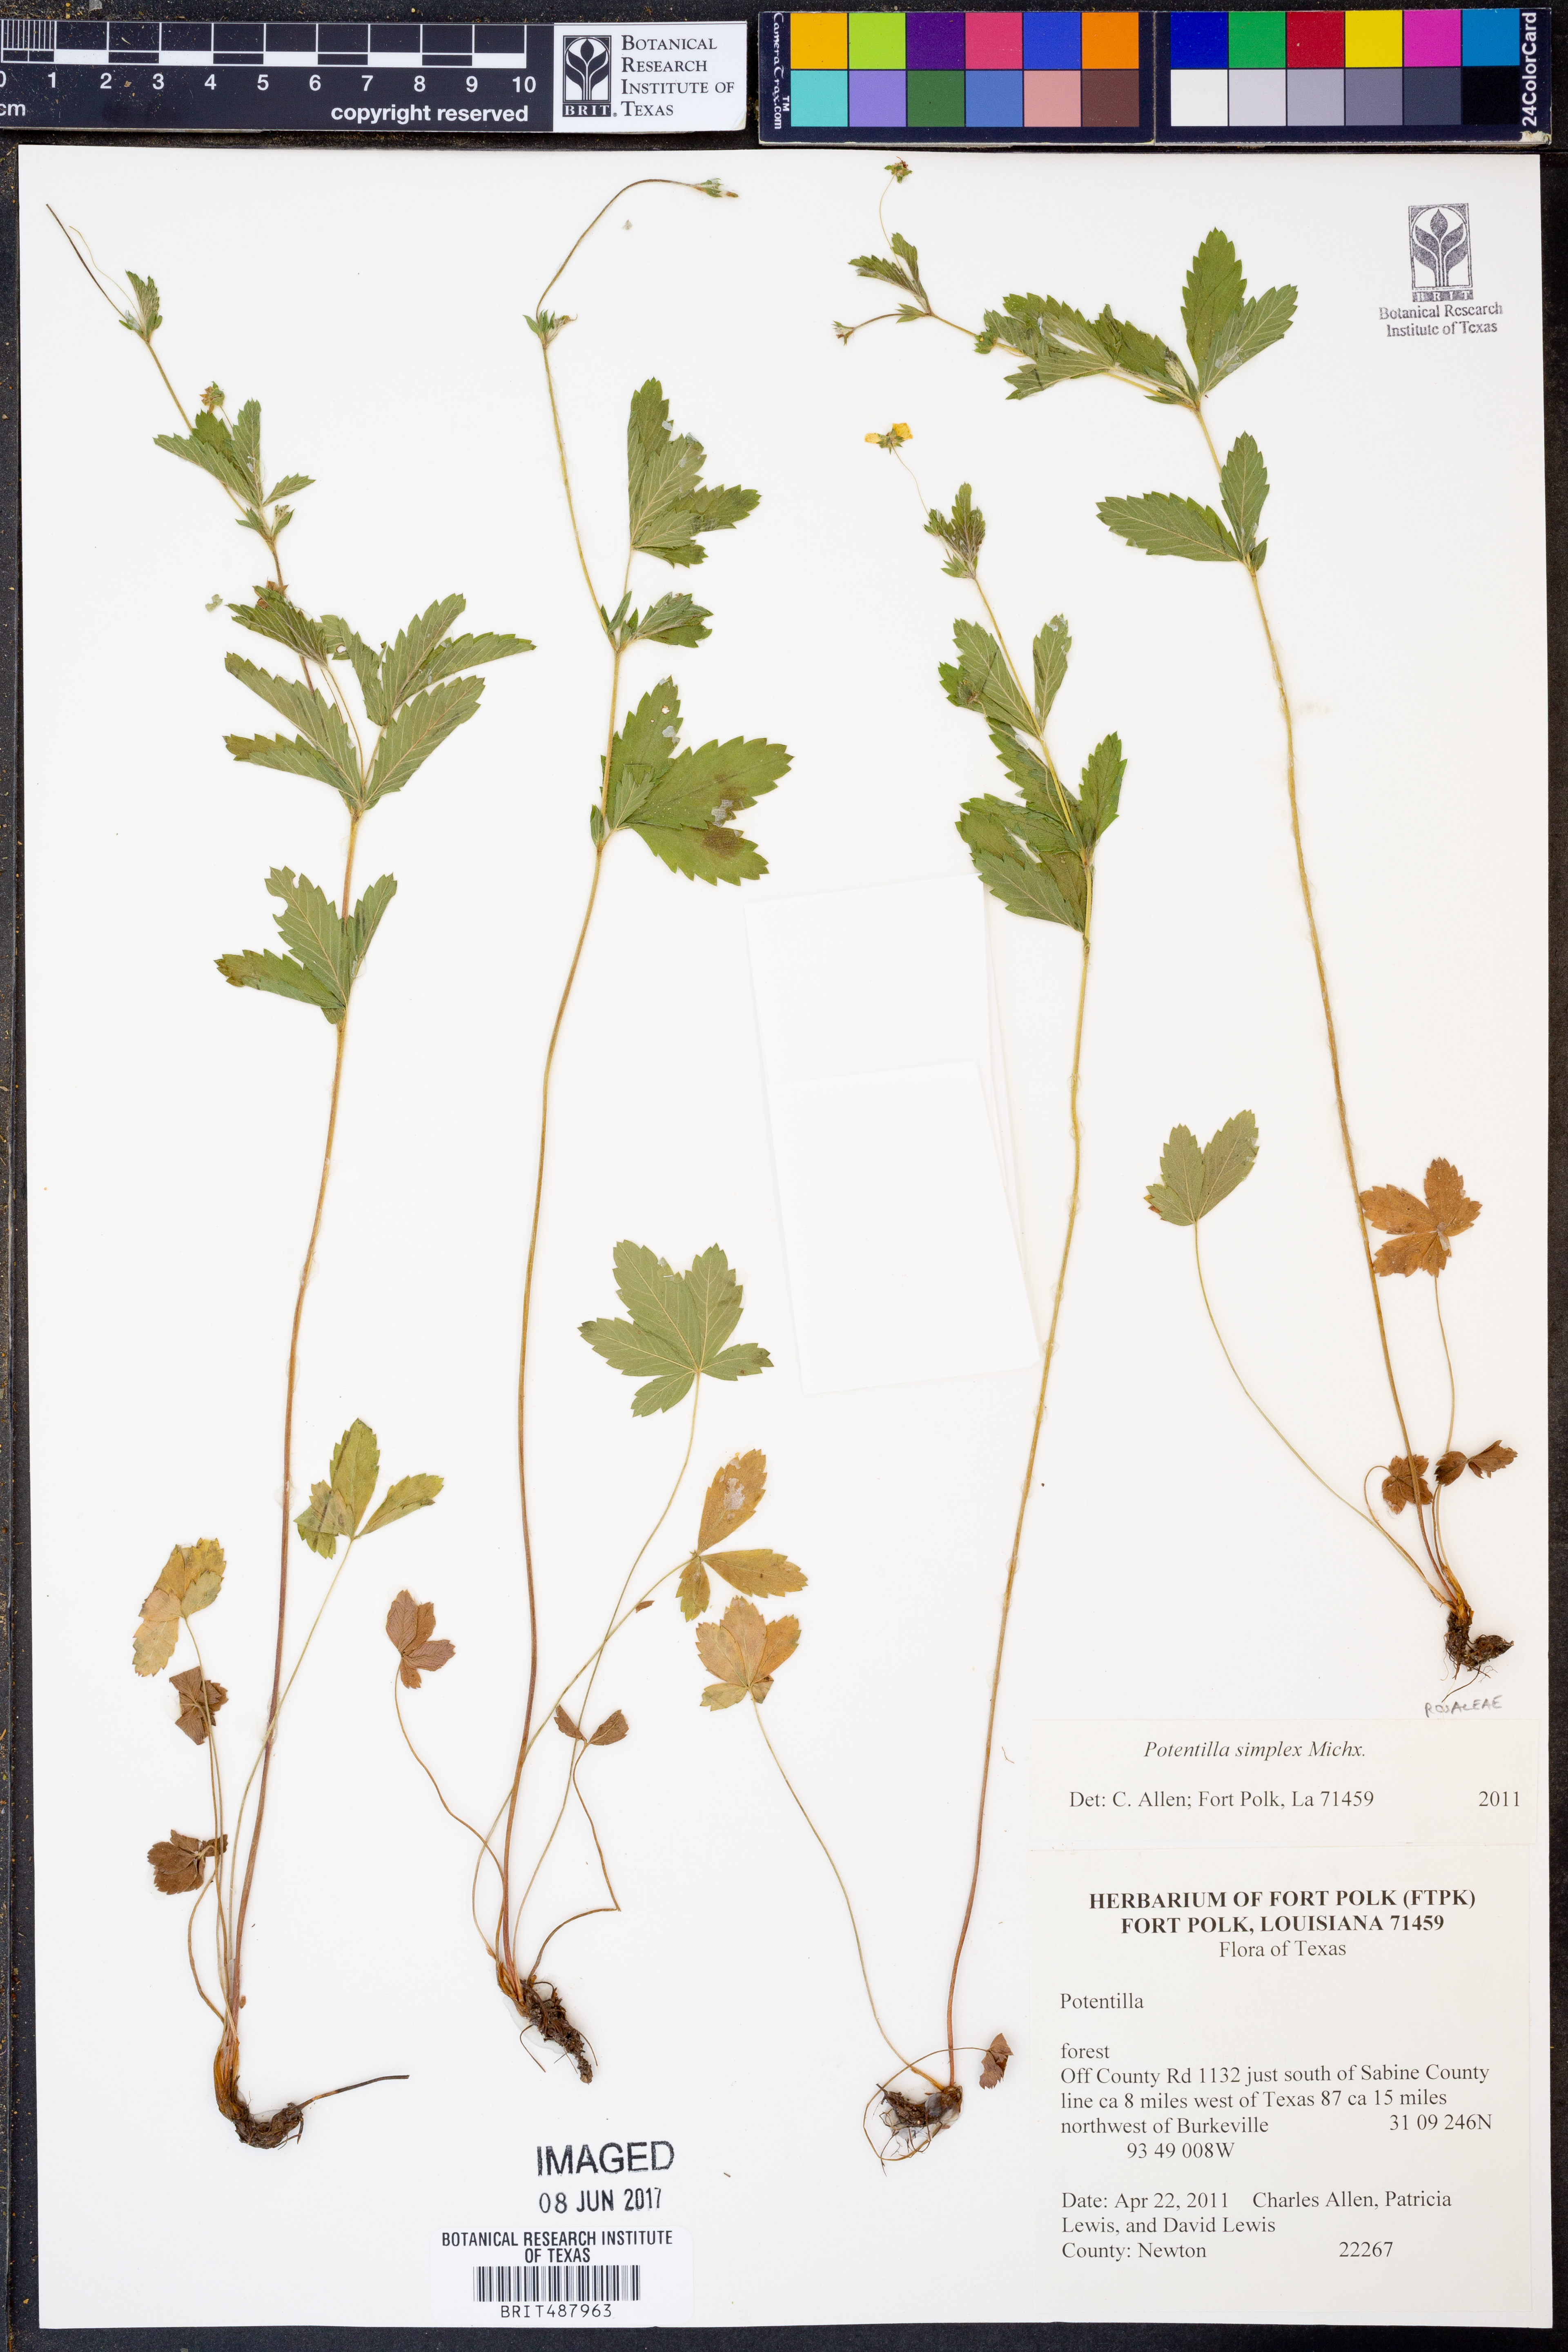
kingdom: Plantae
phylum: Tracheophyta
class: Magnoliopsida
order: Rosales
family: Rosaceae
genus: Potentilla
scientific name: Potentilla simplex
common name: Old field cinquefoil
